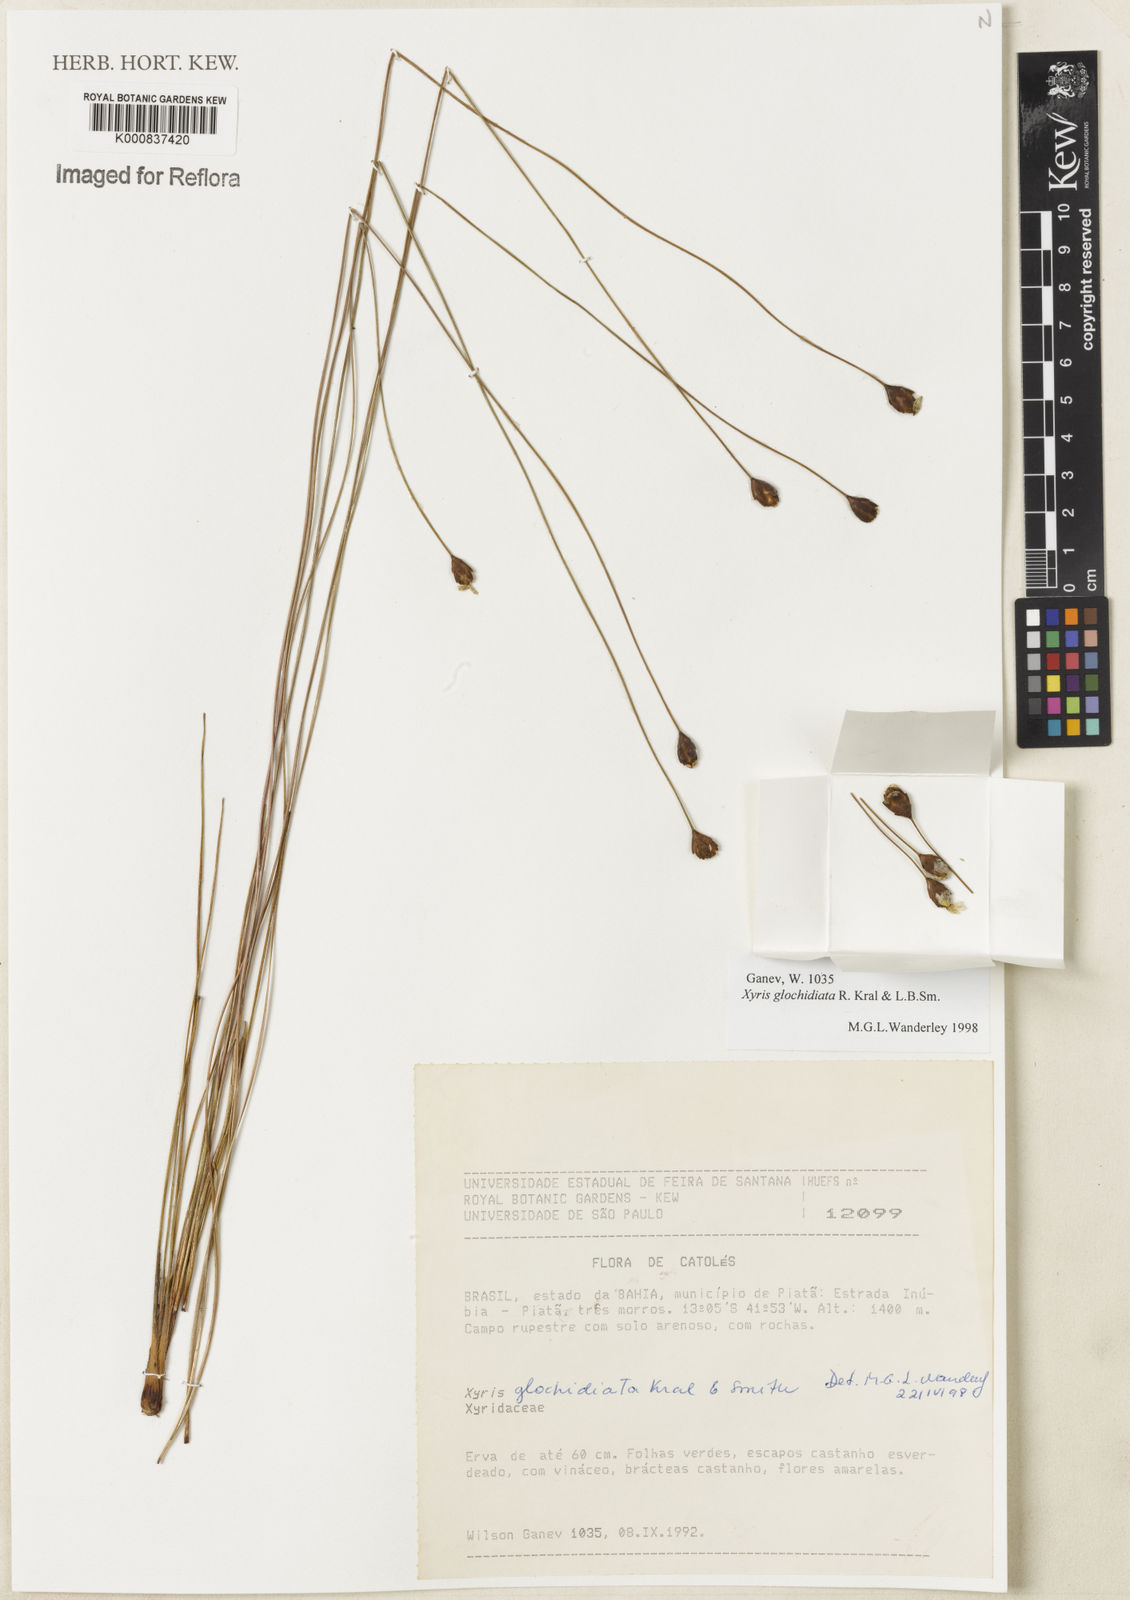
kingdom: Plantae
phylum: Tracheophyta
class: Liliopsida
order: Poales
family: Xyridaceae
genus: Xyris
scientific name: Xyris glochidiata
